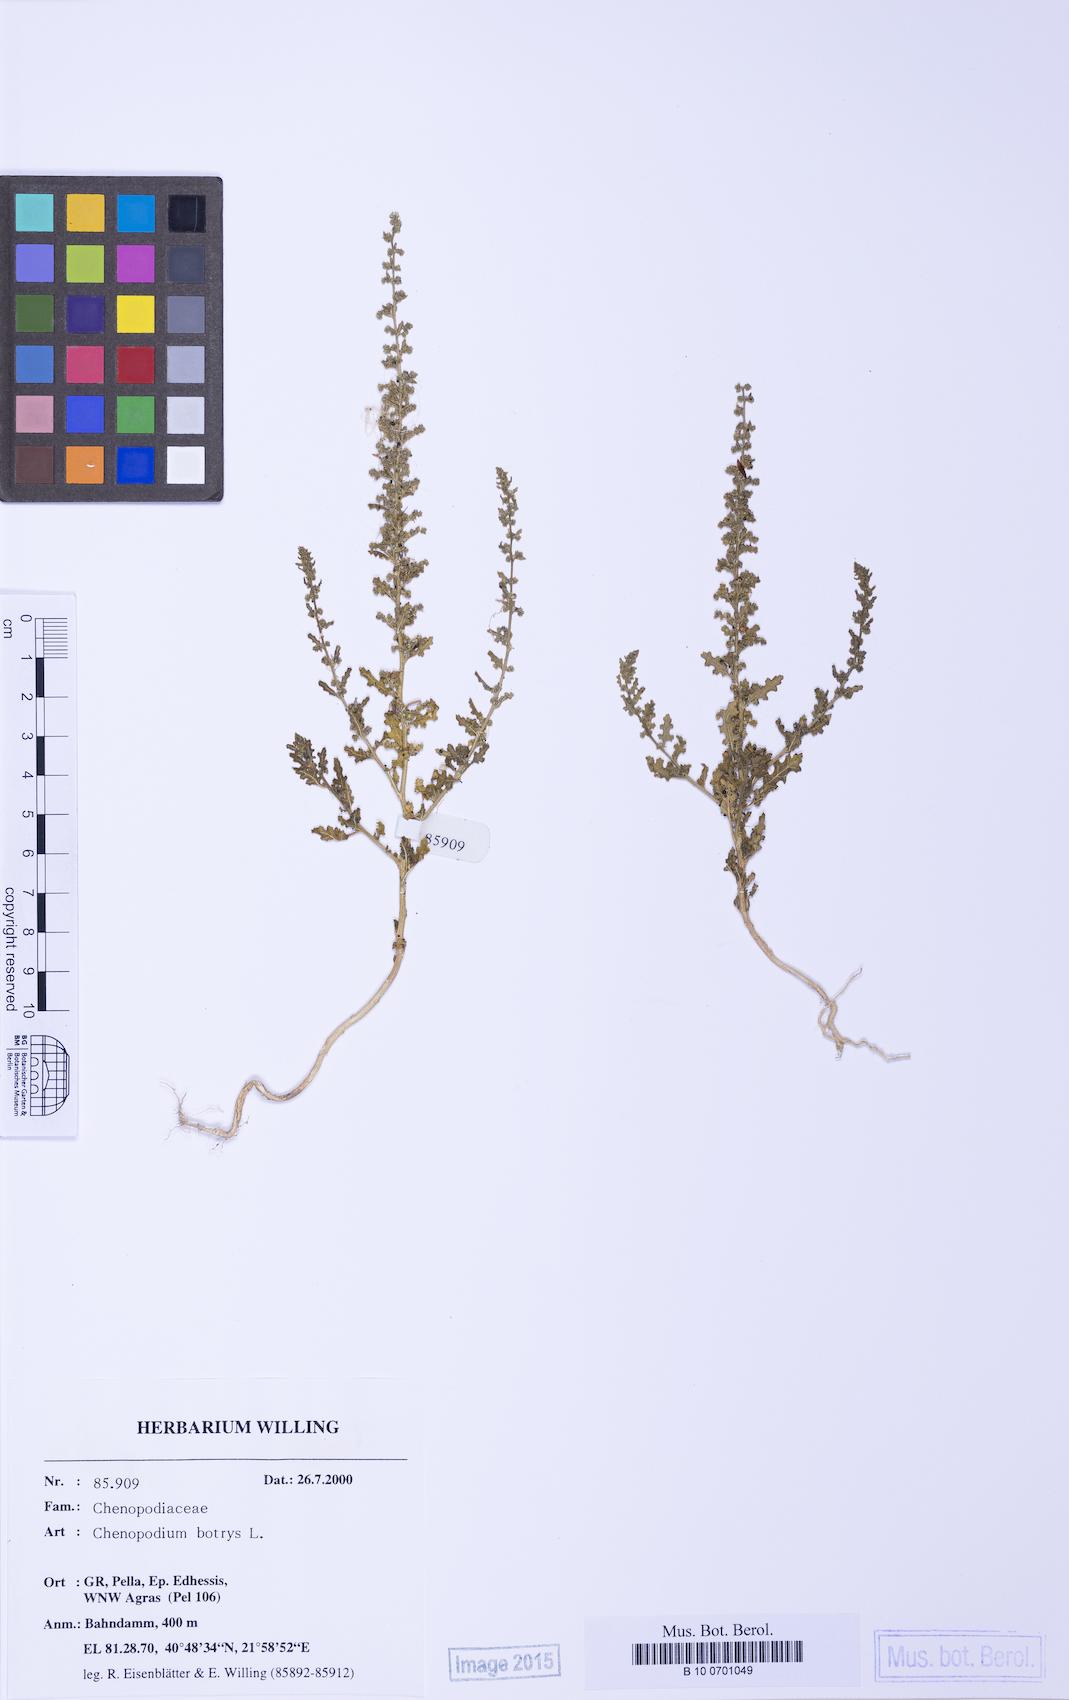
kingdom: Plantae
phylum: Tracheophyta
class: Magnoliopsida
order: Caryophyllales
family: Amaranthaceae
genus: Dysphania
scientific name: Dysphania botrys
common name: Feather-geranium
